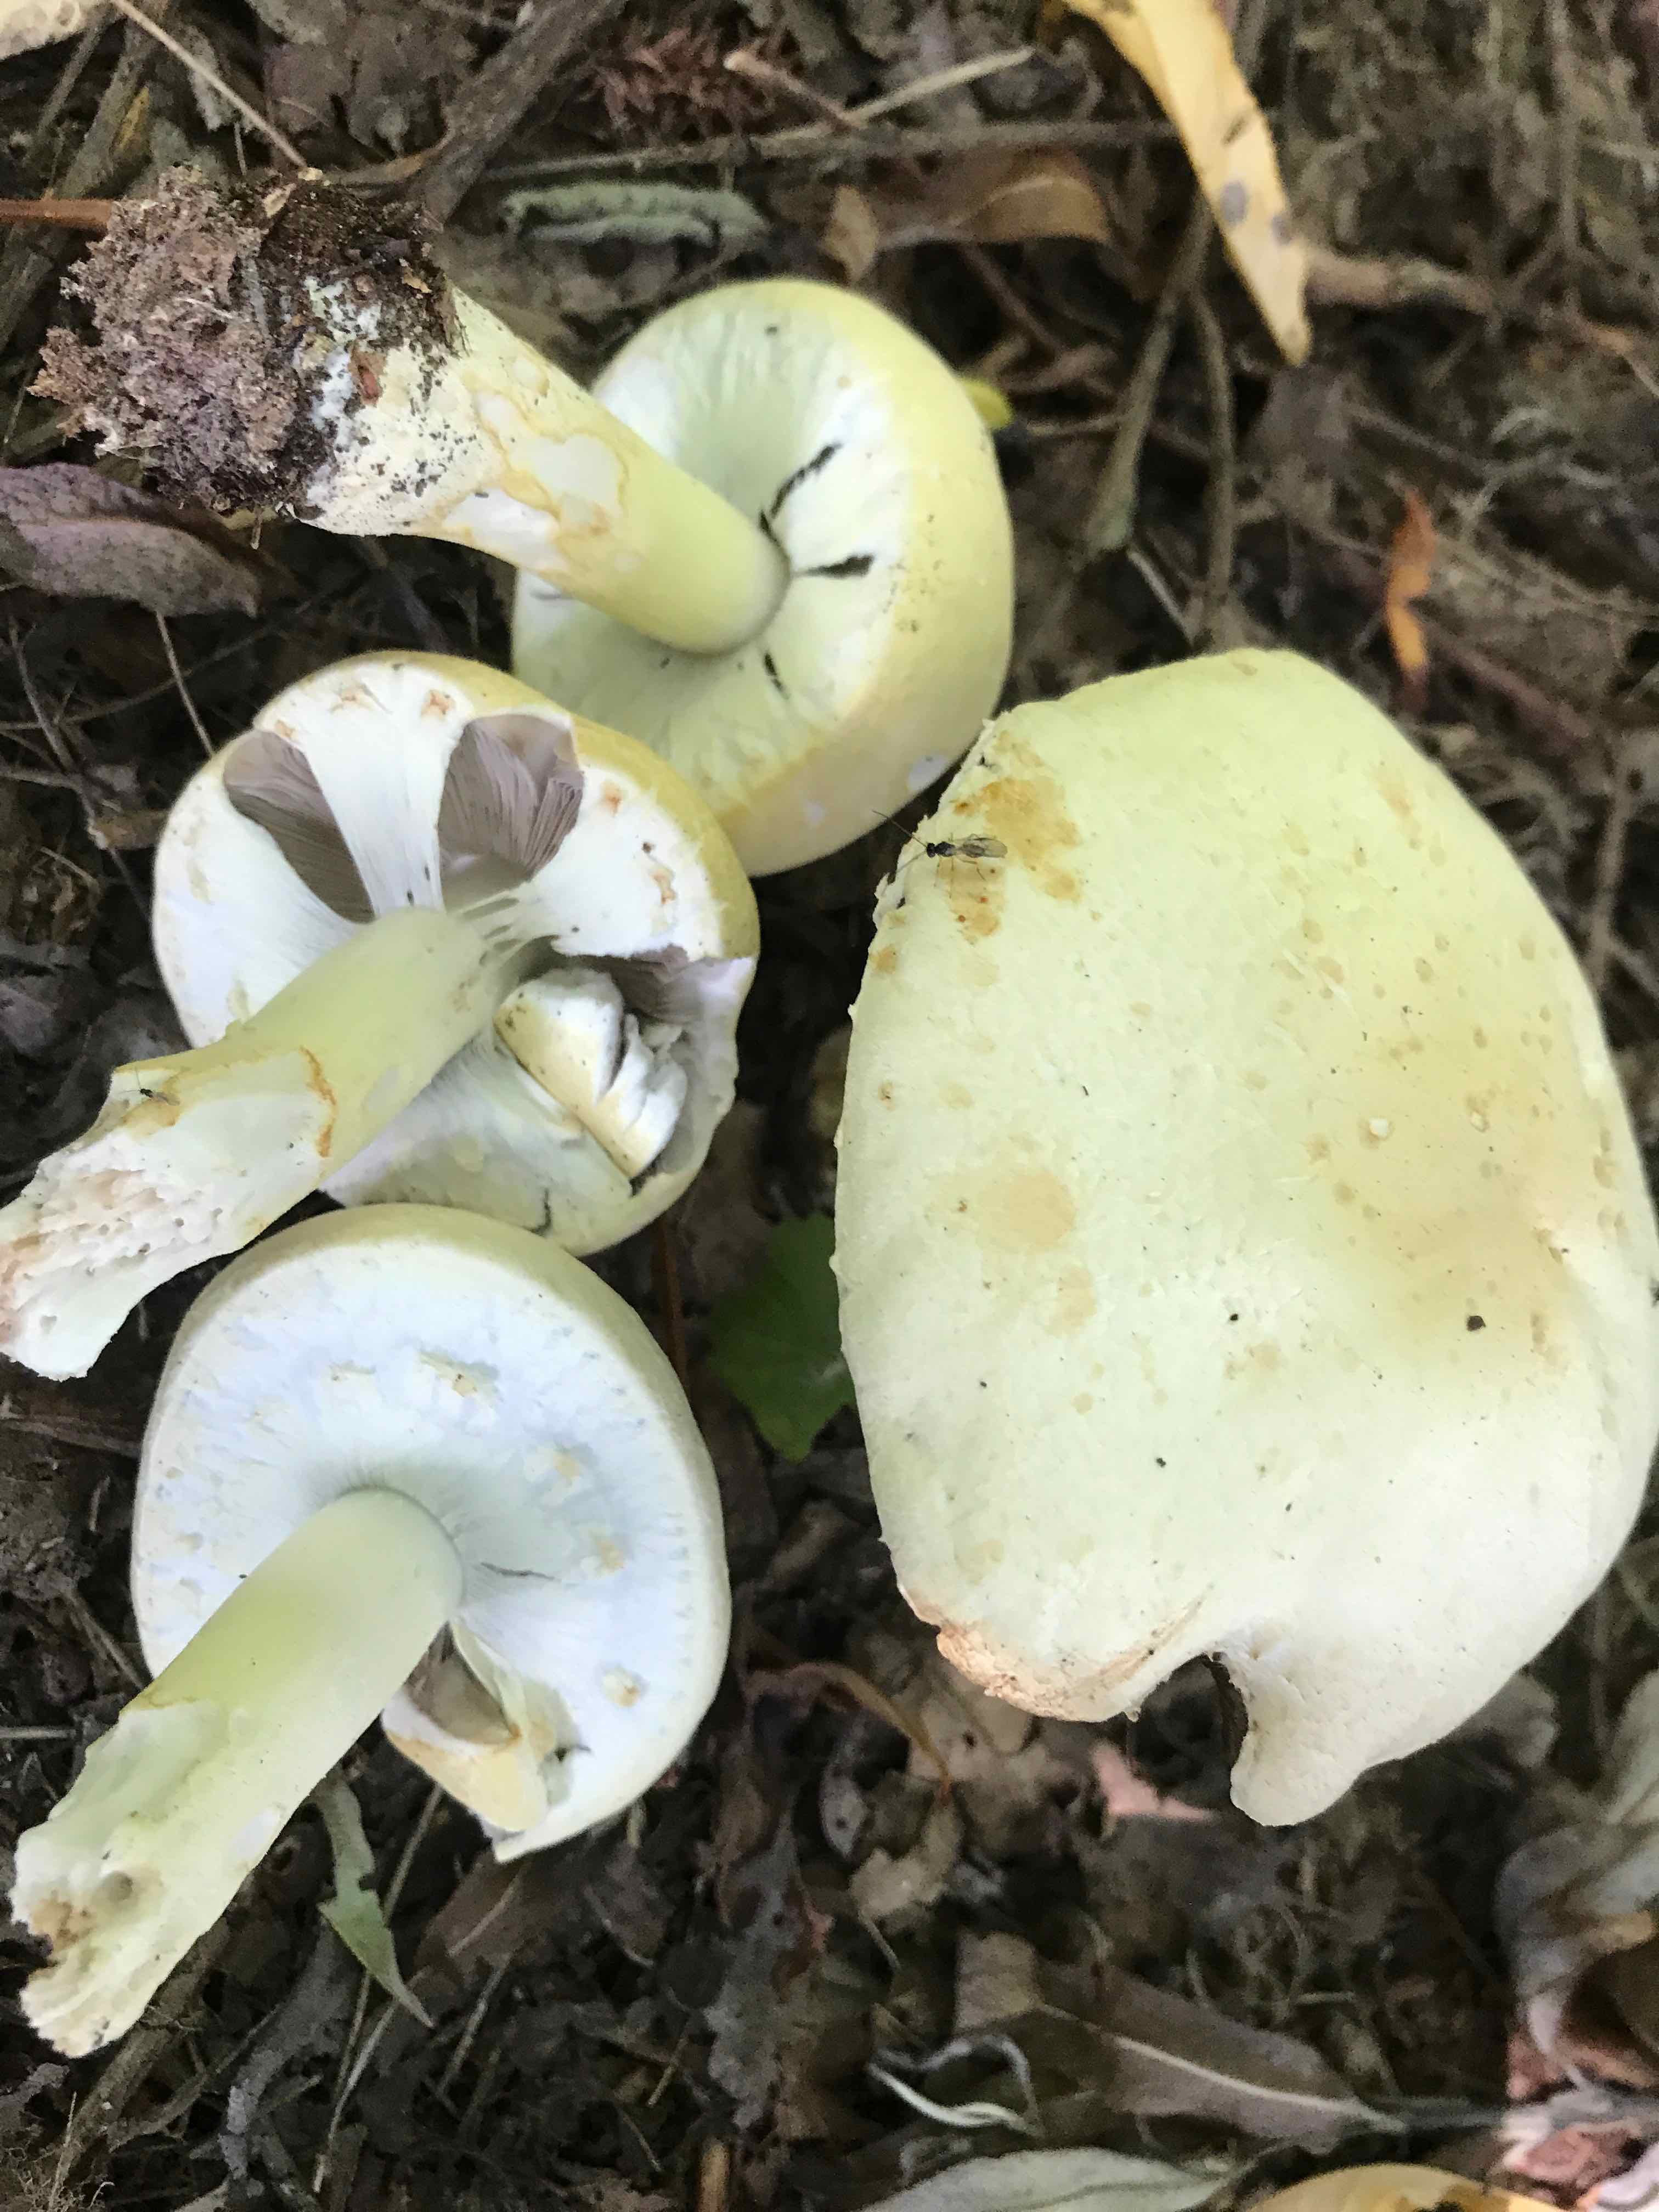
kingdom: Fungi
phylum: Basidiomycota
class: Agaricomycetes
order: Agaricales
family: Agaricaceae
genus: Agaricus
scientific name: Agaricus arvensis
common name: ager-champignon
